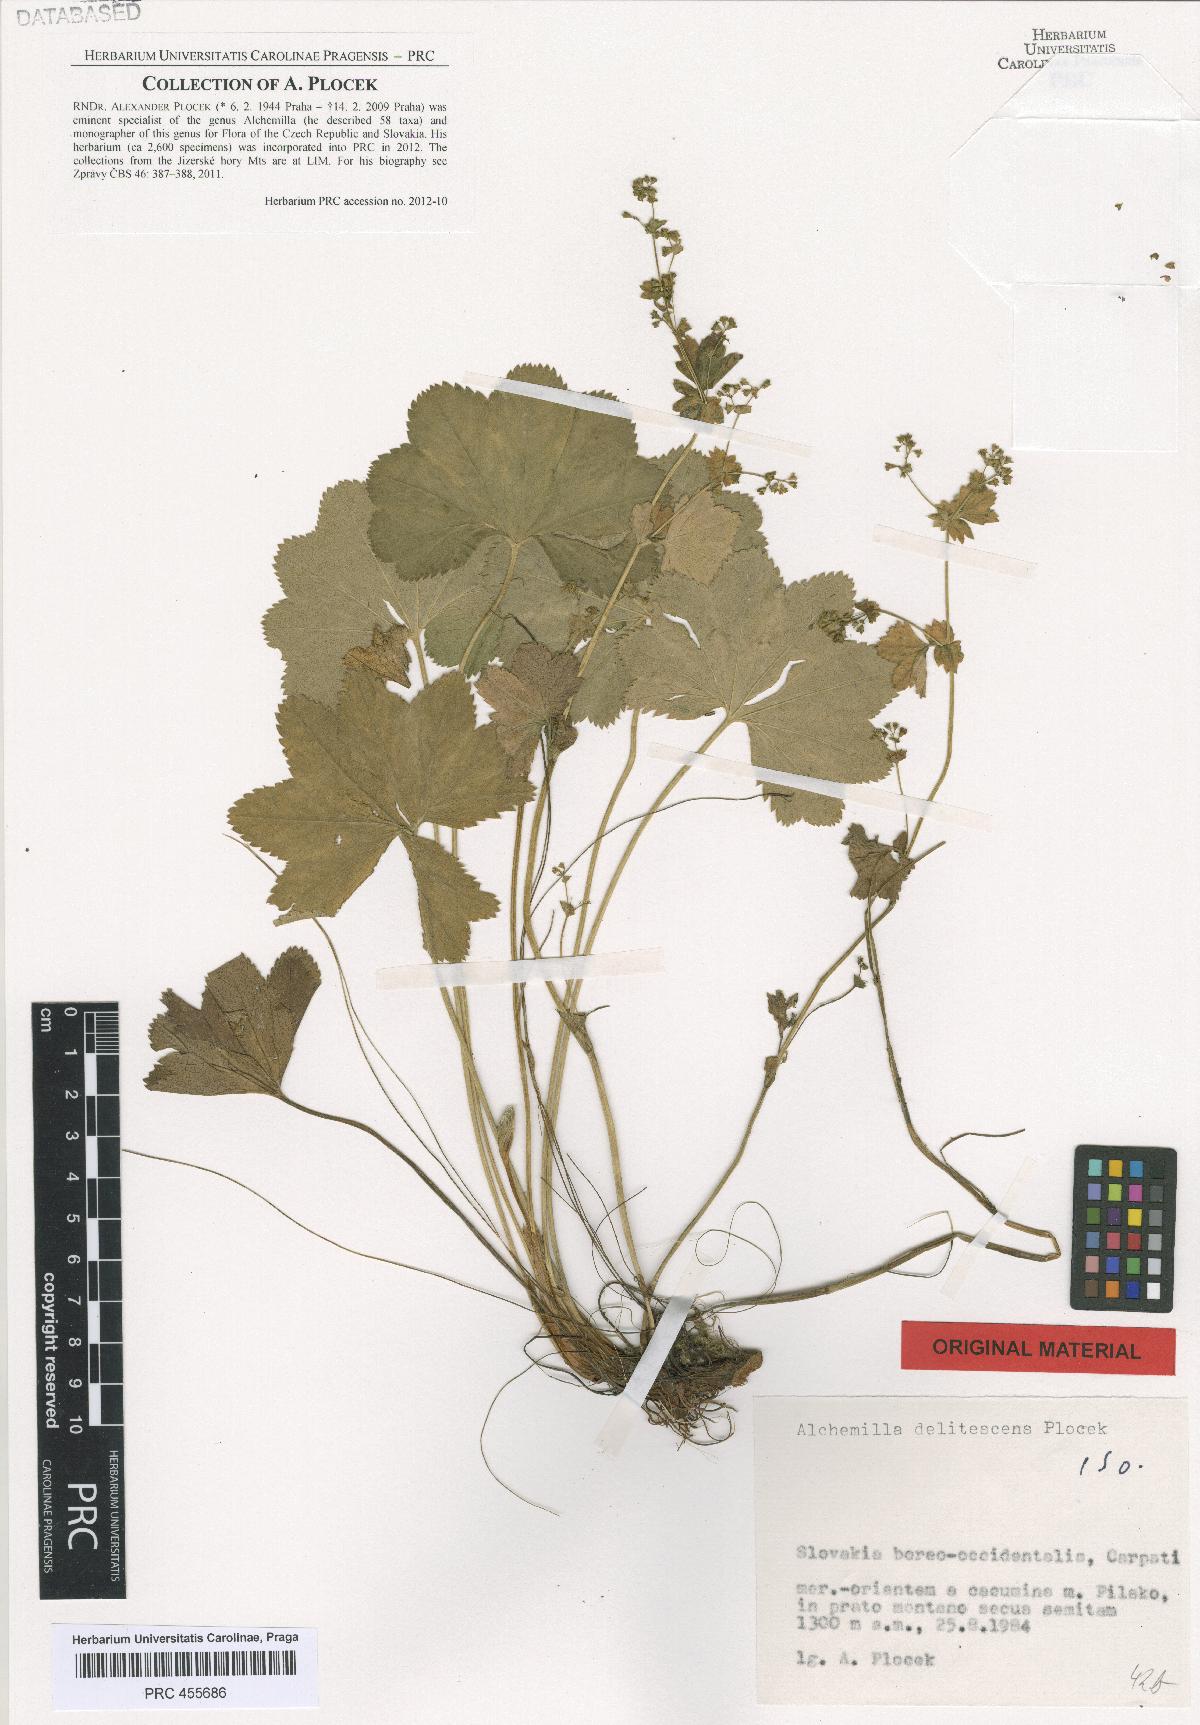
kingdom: Plantae
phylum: Tracheophyta
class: Magnoliopsida
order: Rosales
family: Rosaceae
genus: Alchemilla
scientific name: Alchemilla delitescens
